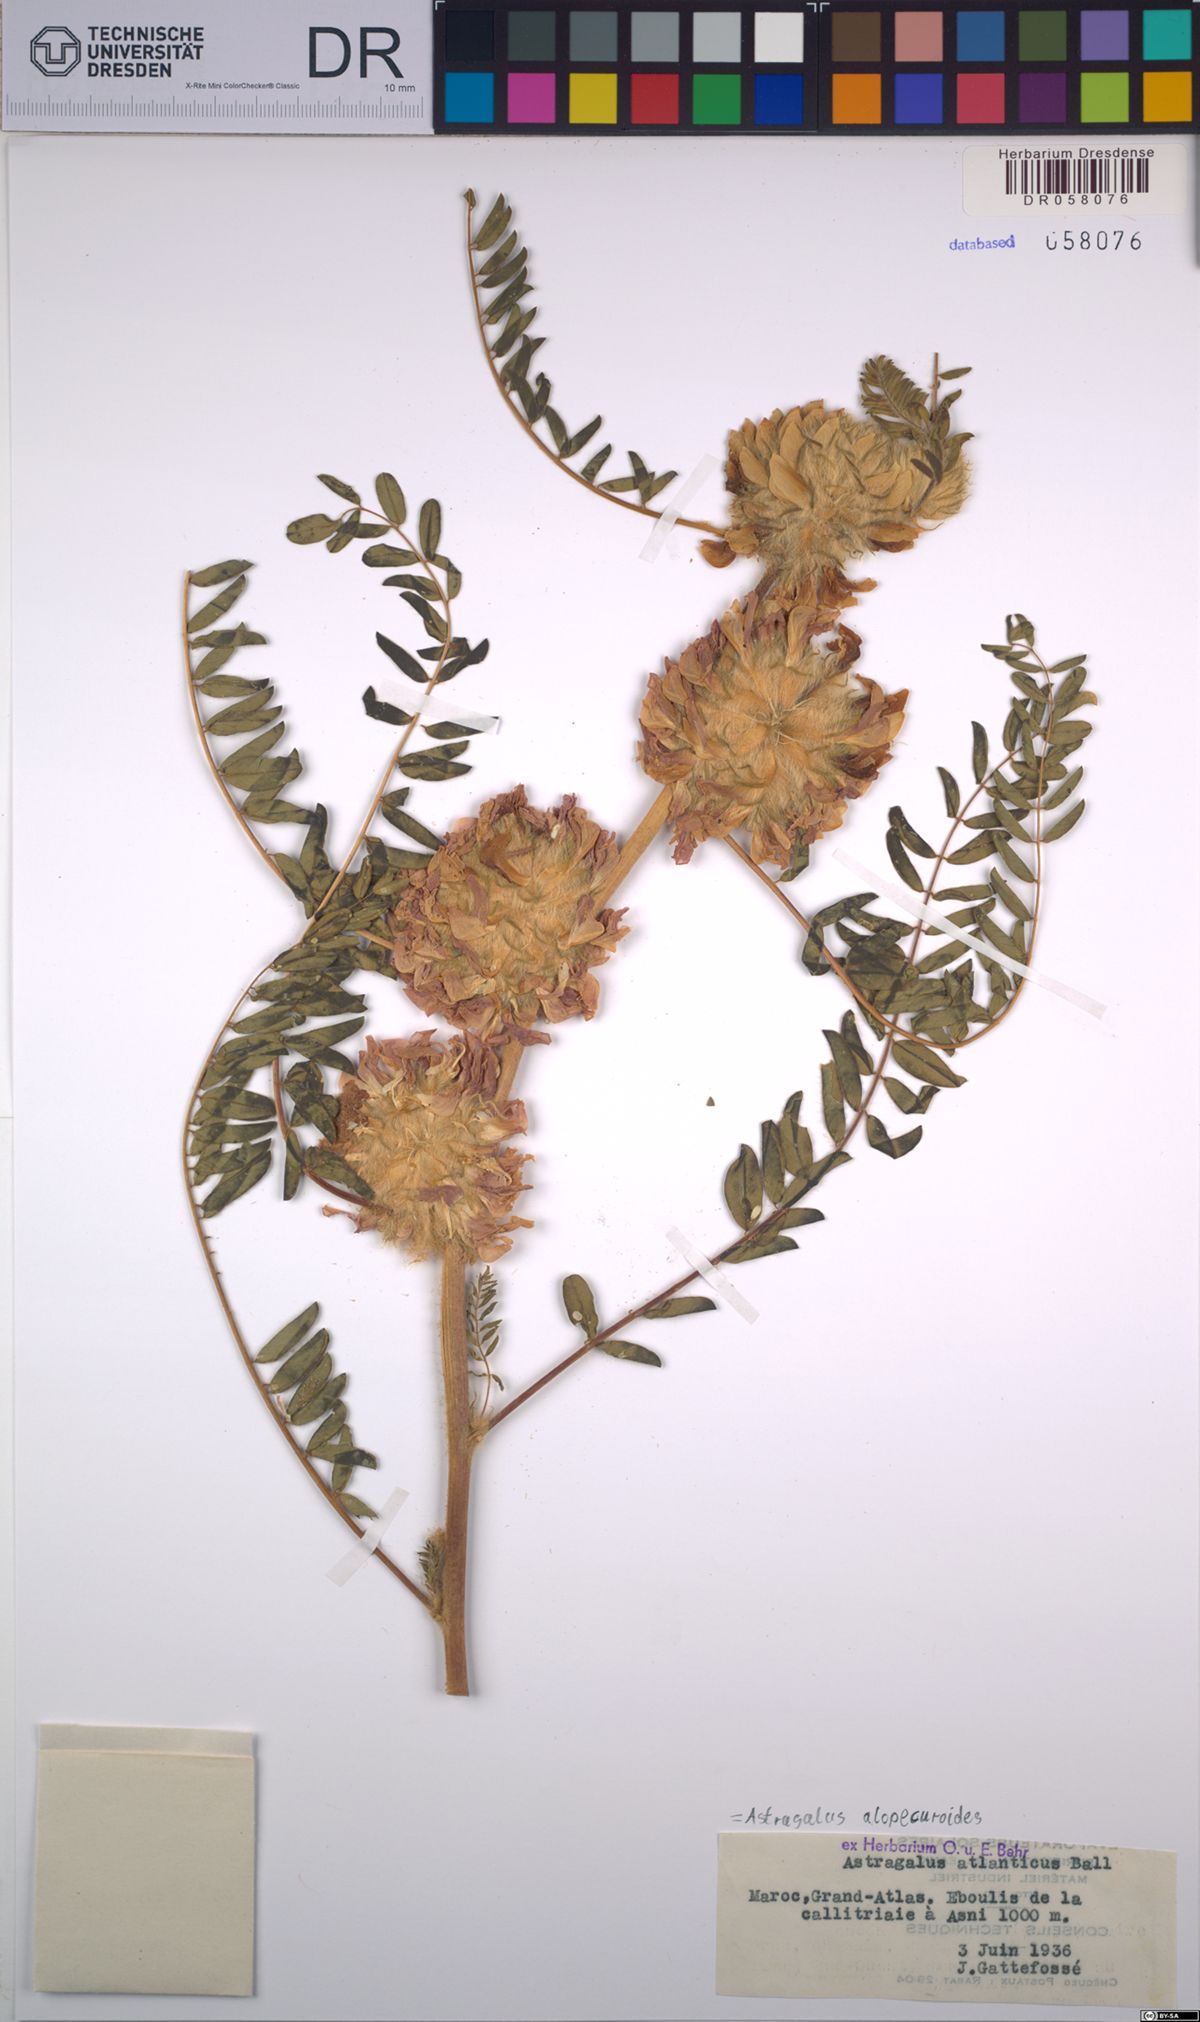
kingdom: Plantae
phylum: Tracheophyta
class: Magnoliopsida
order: Fabales
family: Fabaceae
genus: Astragalus
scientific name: Astragalus alopecuroides
